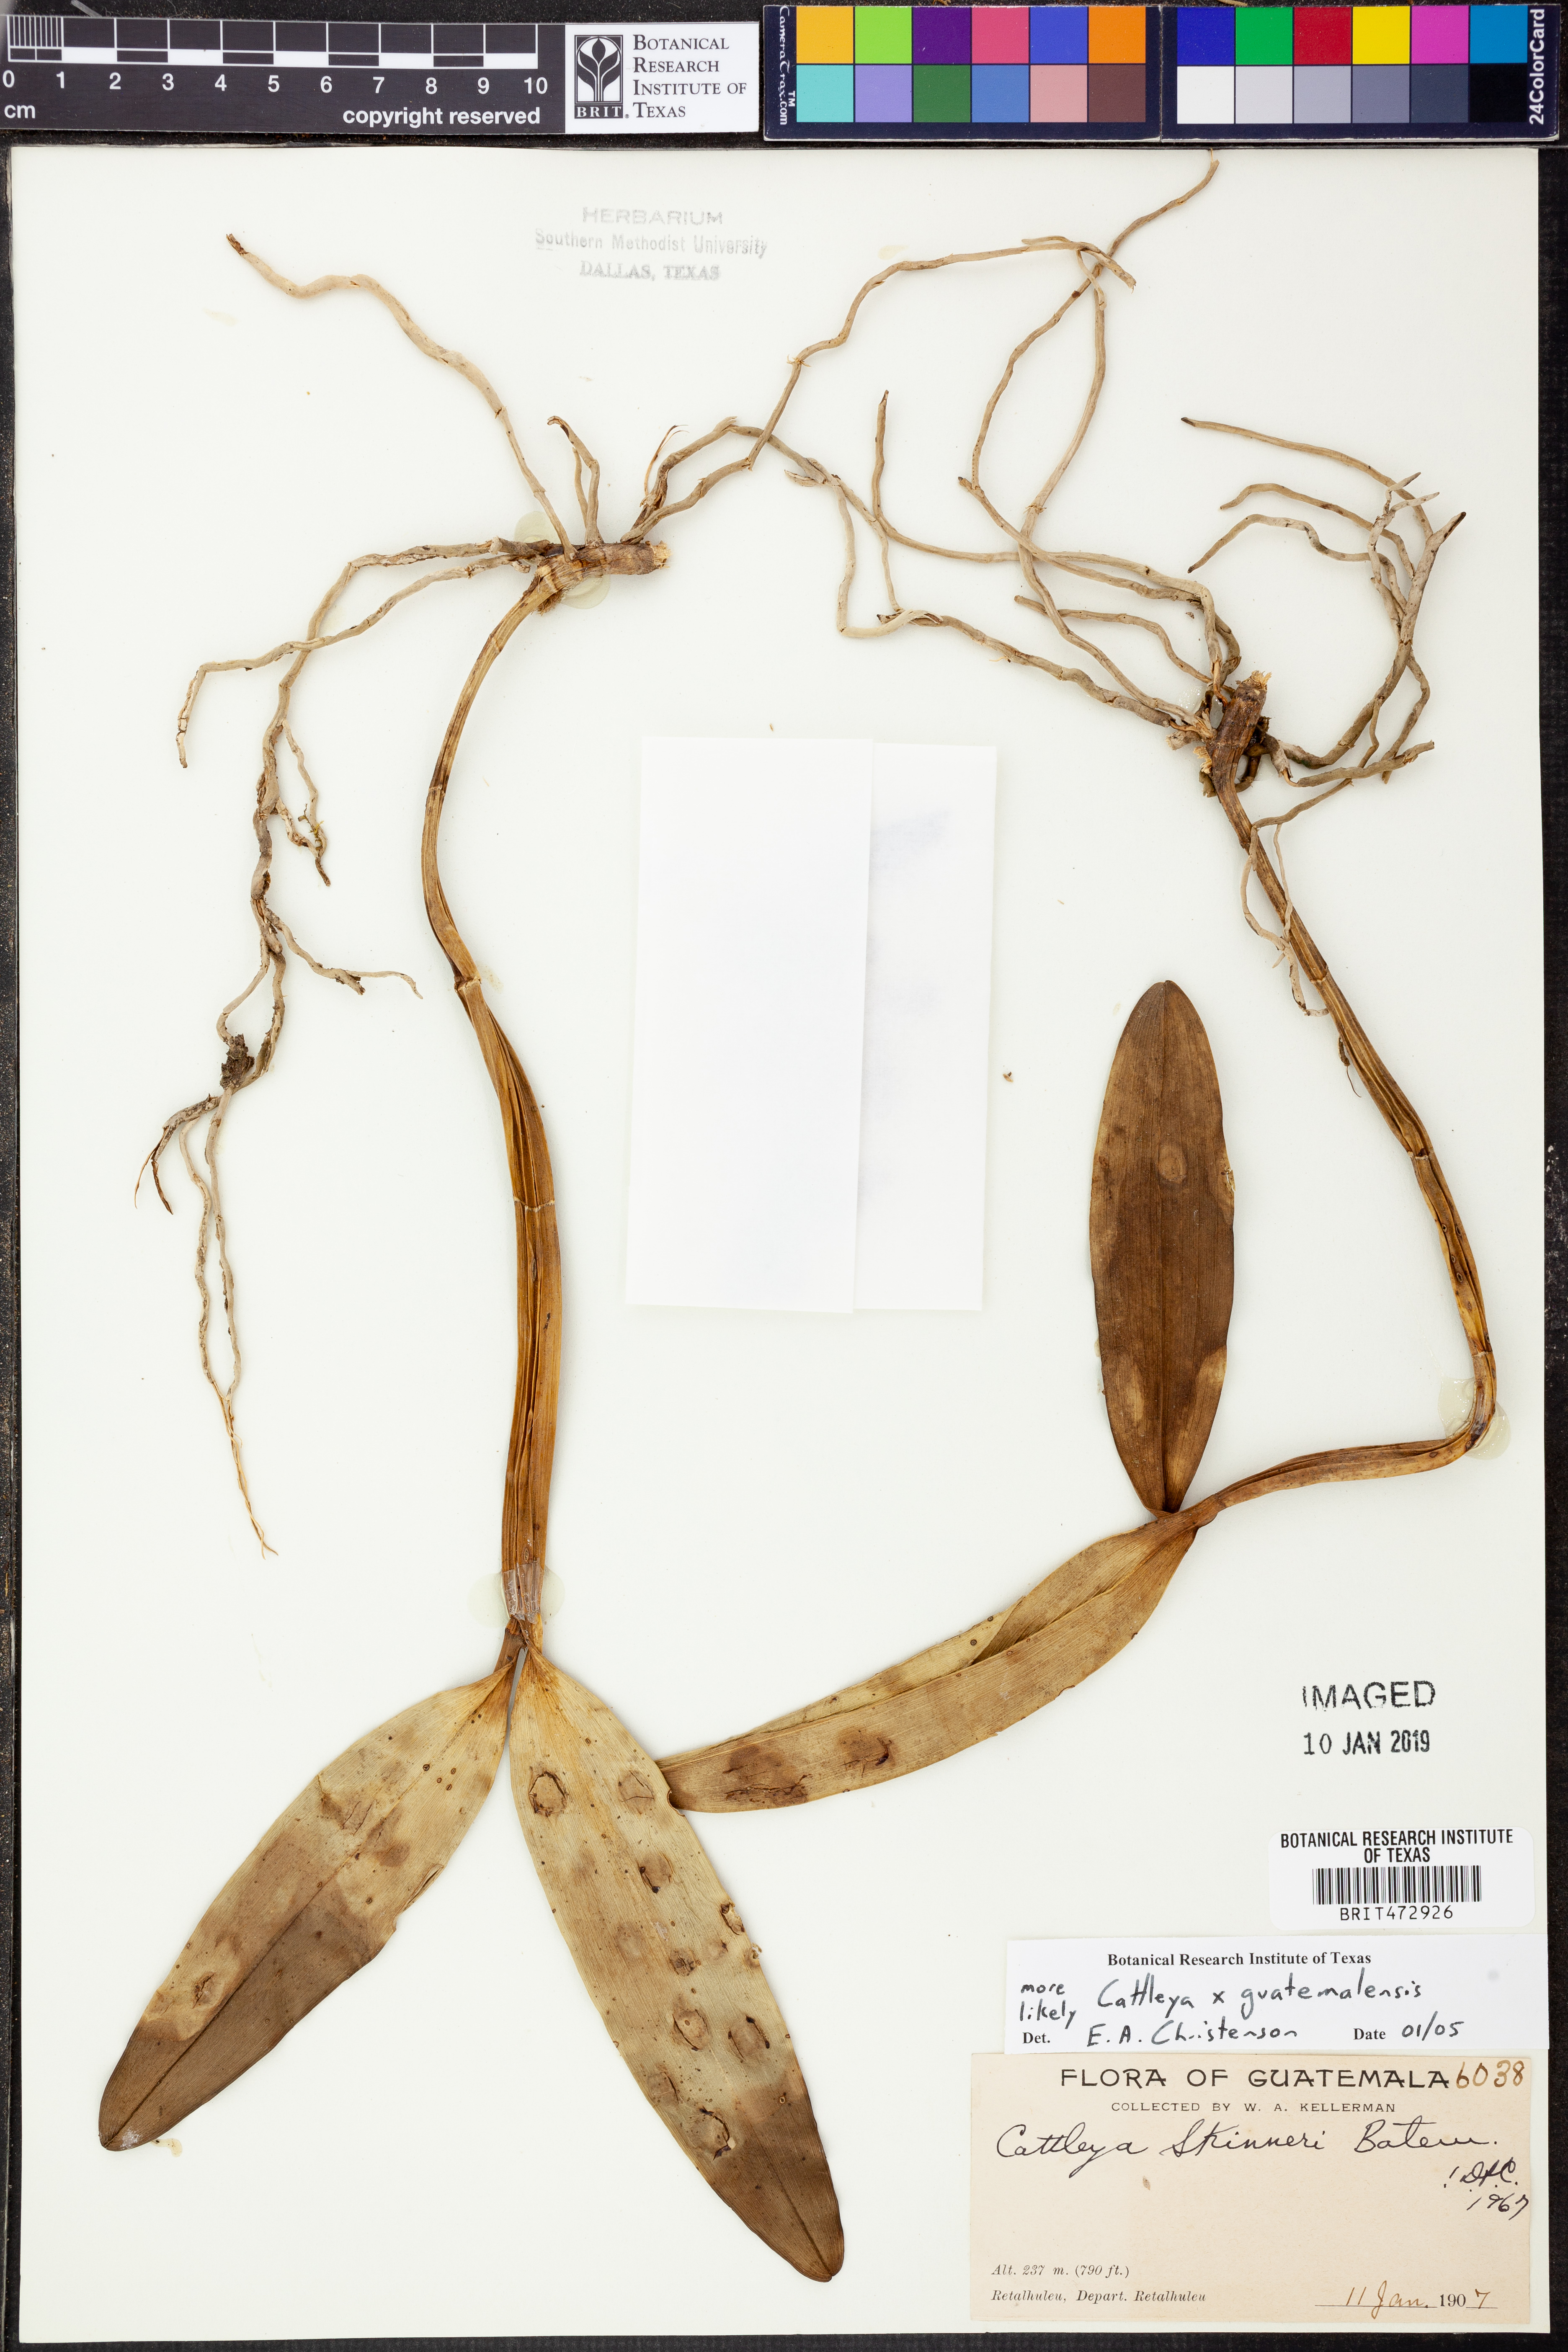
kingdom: Plantae
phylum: Tracheophyta
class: Liliopsida
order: Asparagales
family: Orchidaceae
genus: Guarianthe
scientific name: Guarianthe laelioides
